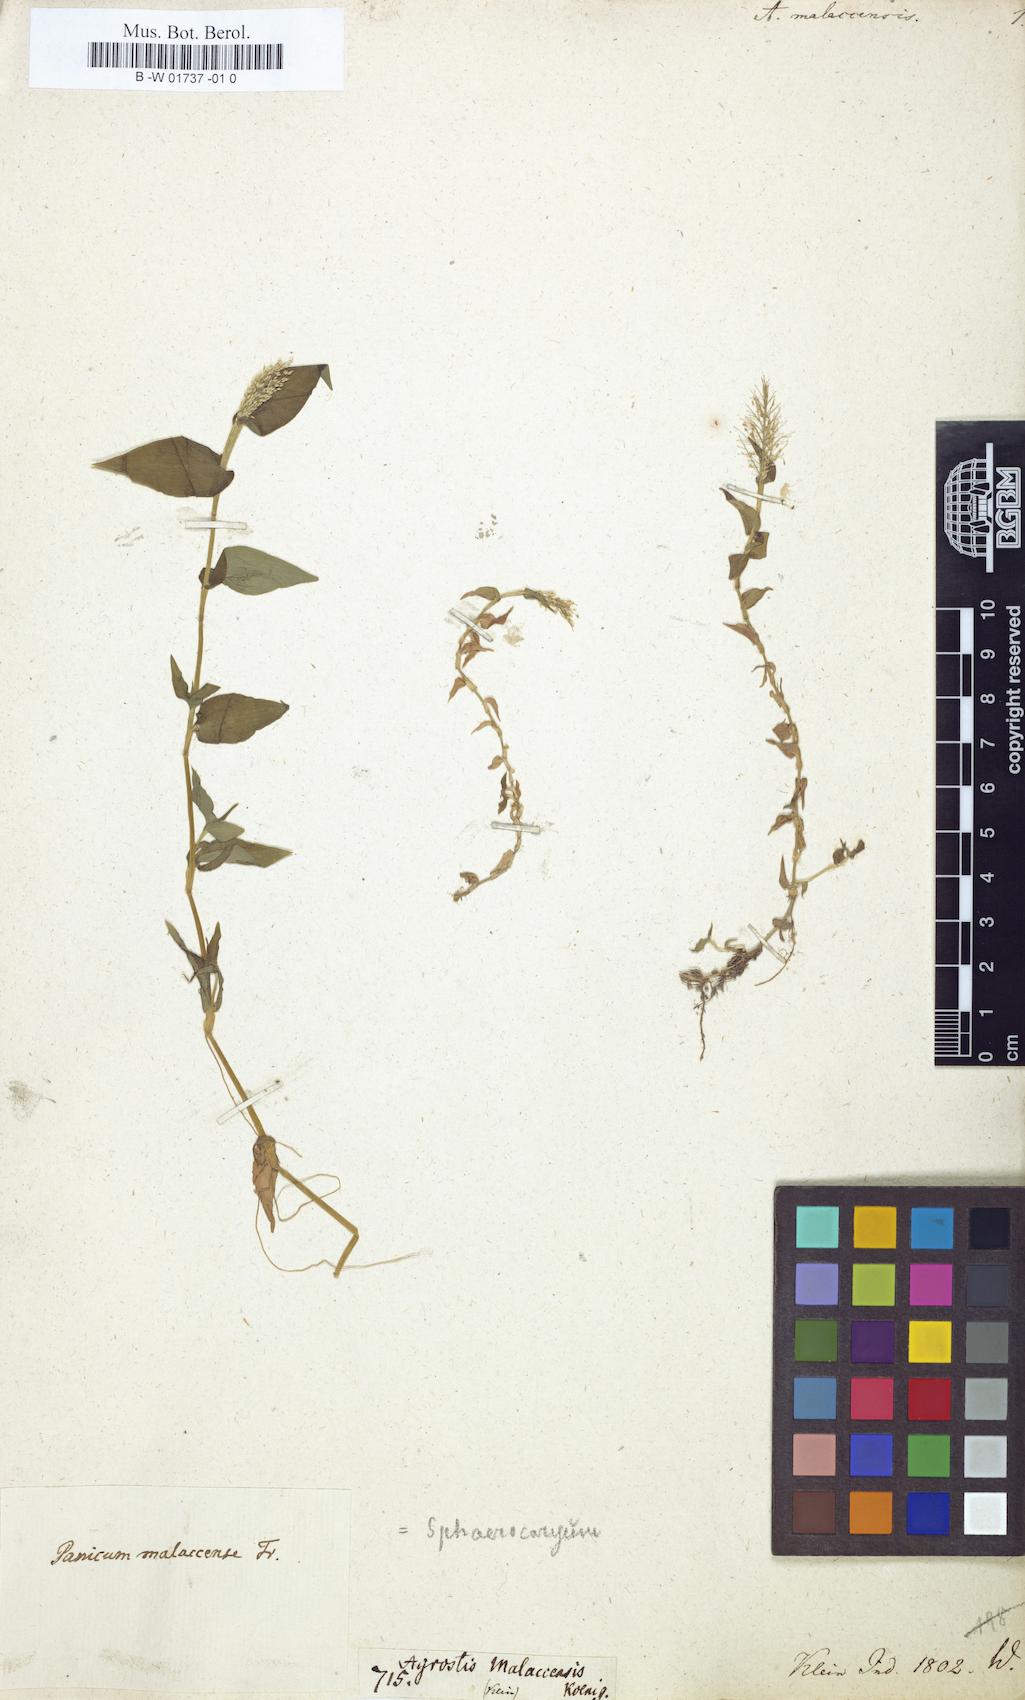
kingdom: Plantae
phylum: Tracheophyta
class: Liliopsida
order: Poales
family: Poaceae
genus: Sphaerocaryum
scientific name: Sphaerocaryum malaccense
